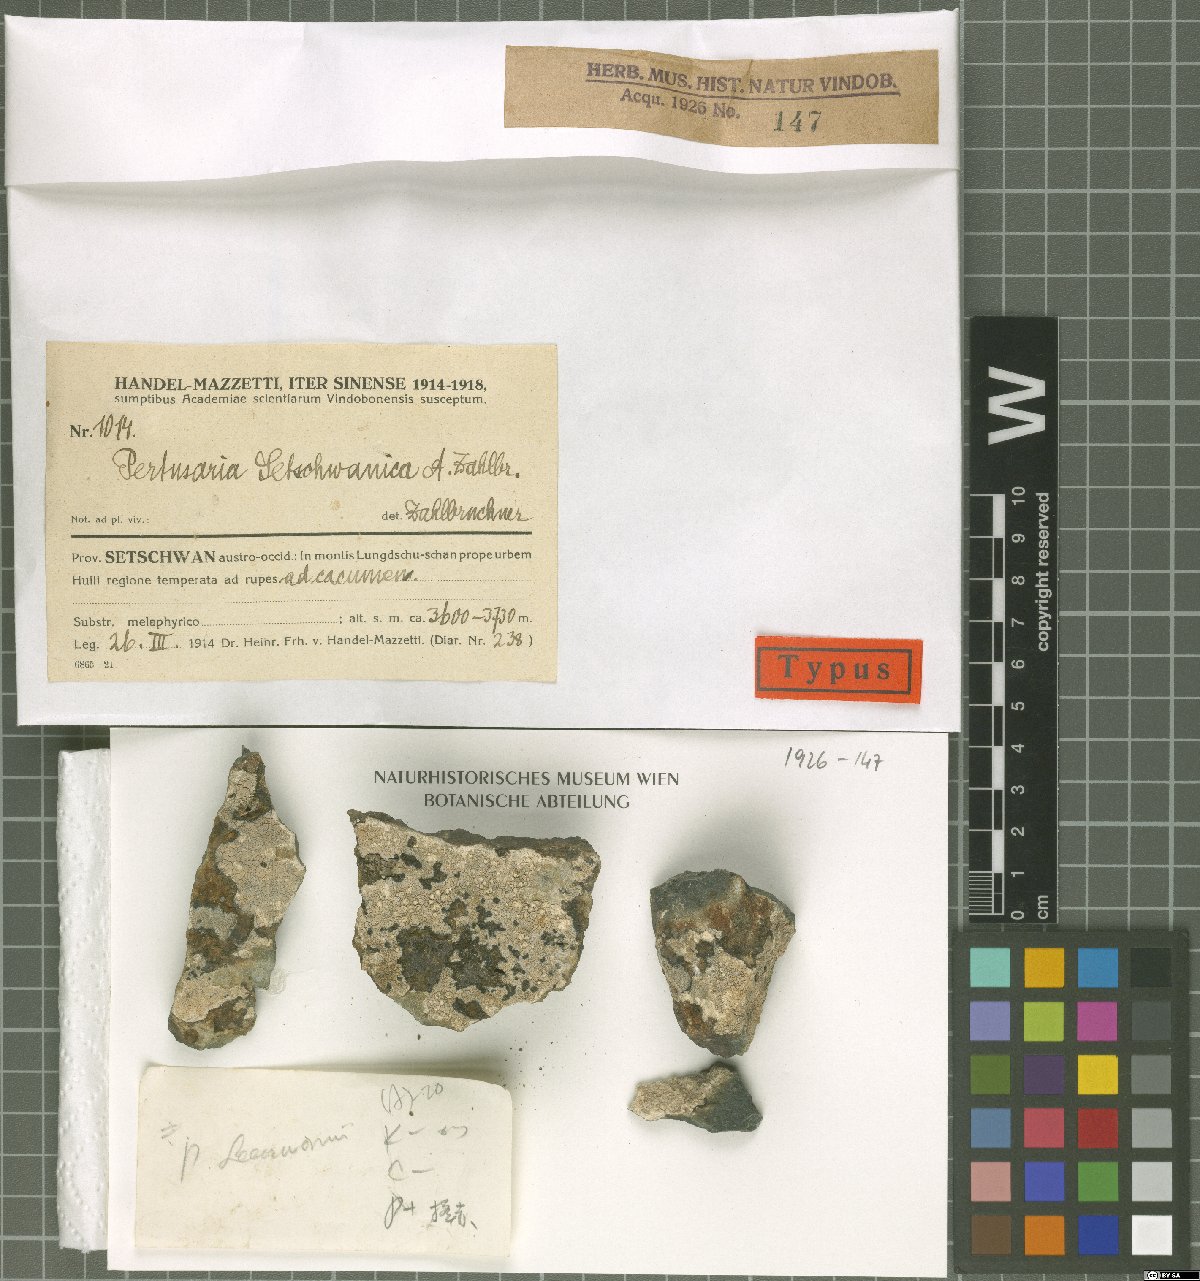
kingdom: Fungi
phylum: Ascomycota
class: Lecanoromycetes
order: Pertusariales
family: Pertusariaceae
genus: Lepra
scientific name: Lepra setschwanica
